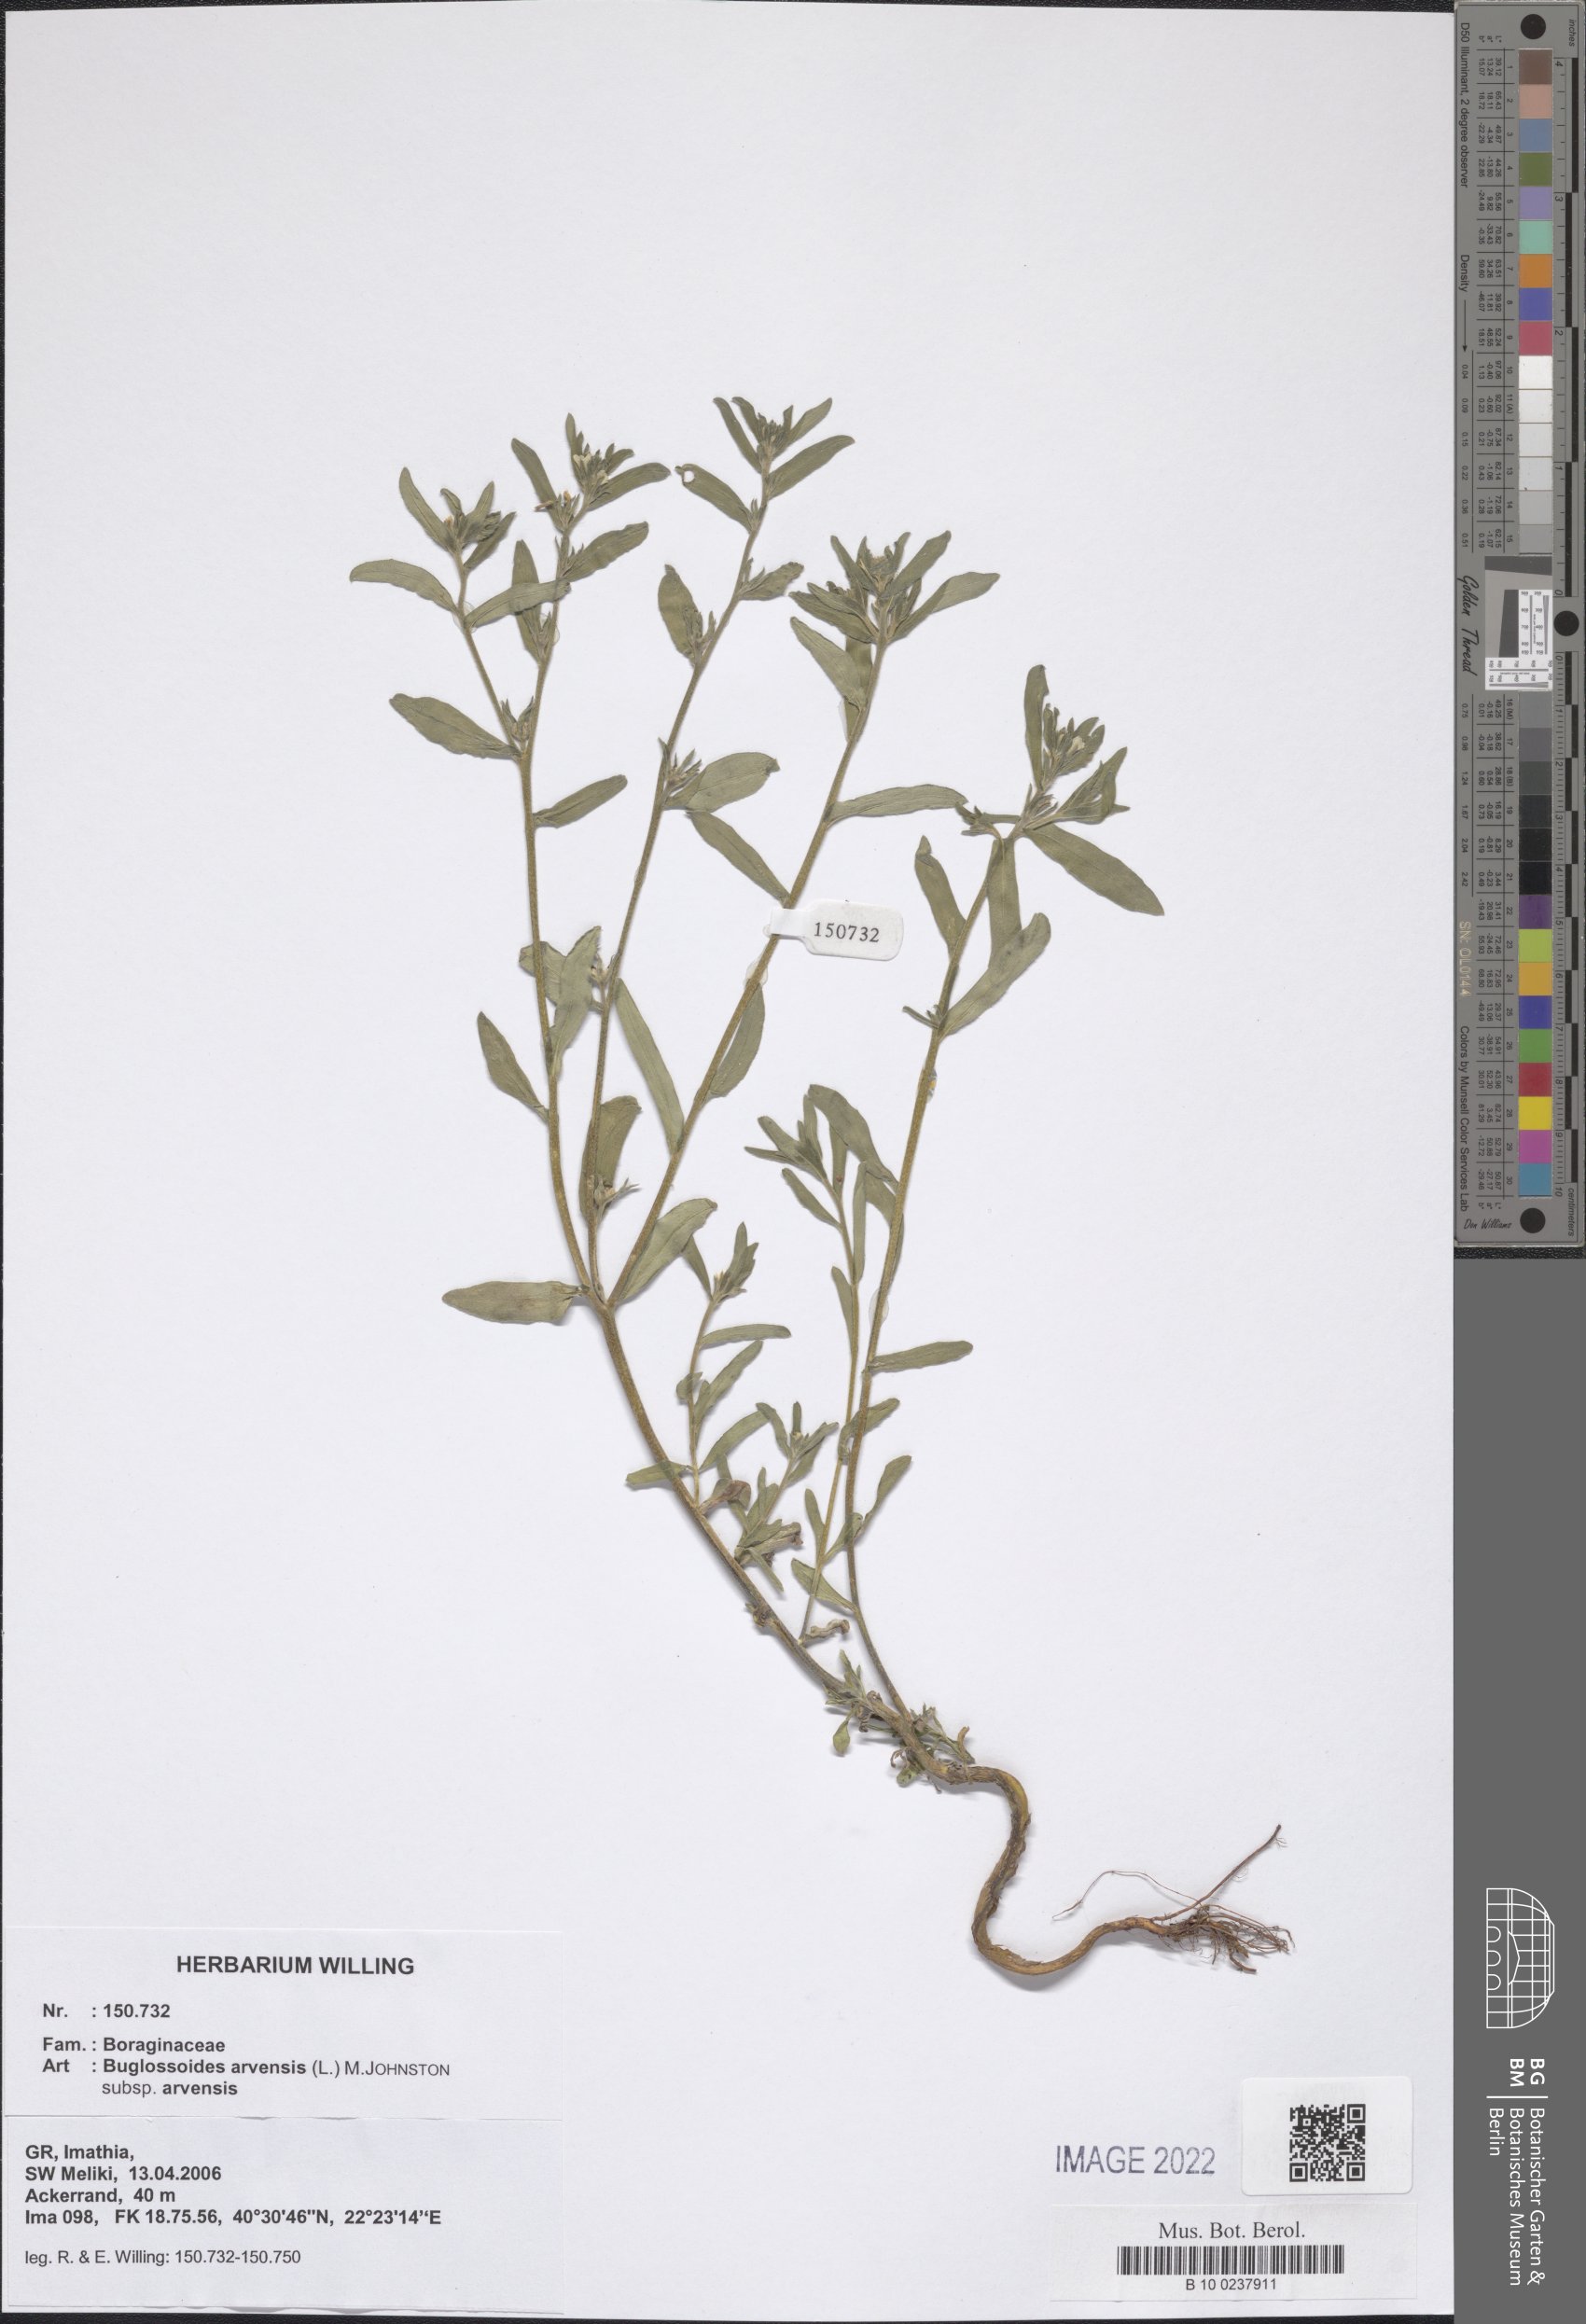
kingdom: Plantae
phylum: Tracheophyta
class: Magnoliopsida
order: Boraginales
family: Boraginaceae
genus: Buglossoides
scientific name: Buglossoides arvensis
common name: Corn gromwell
